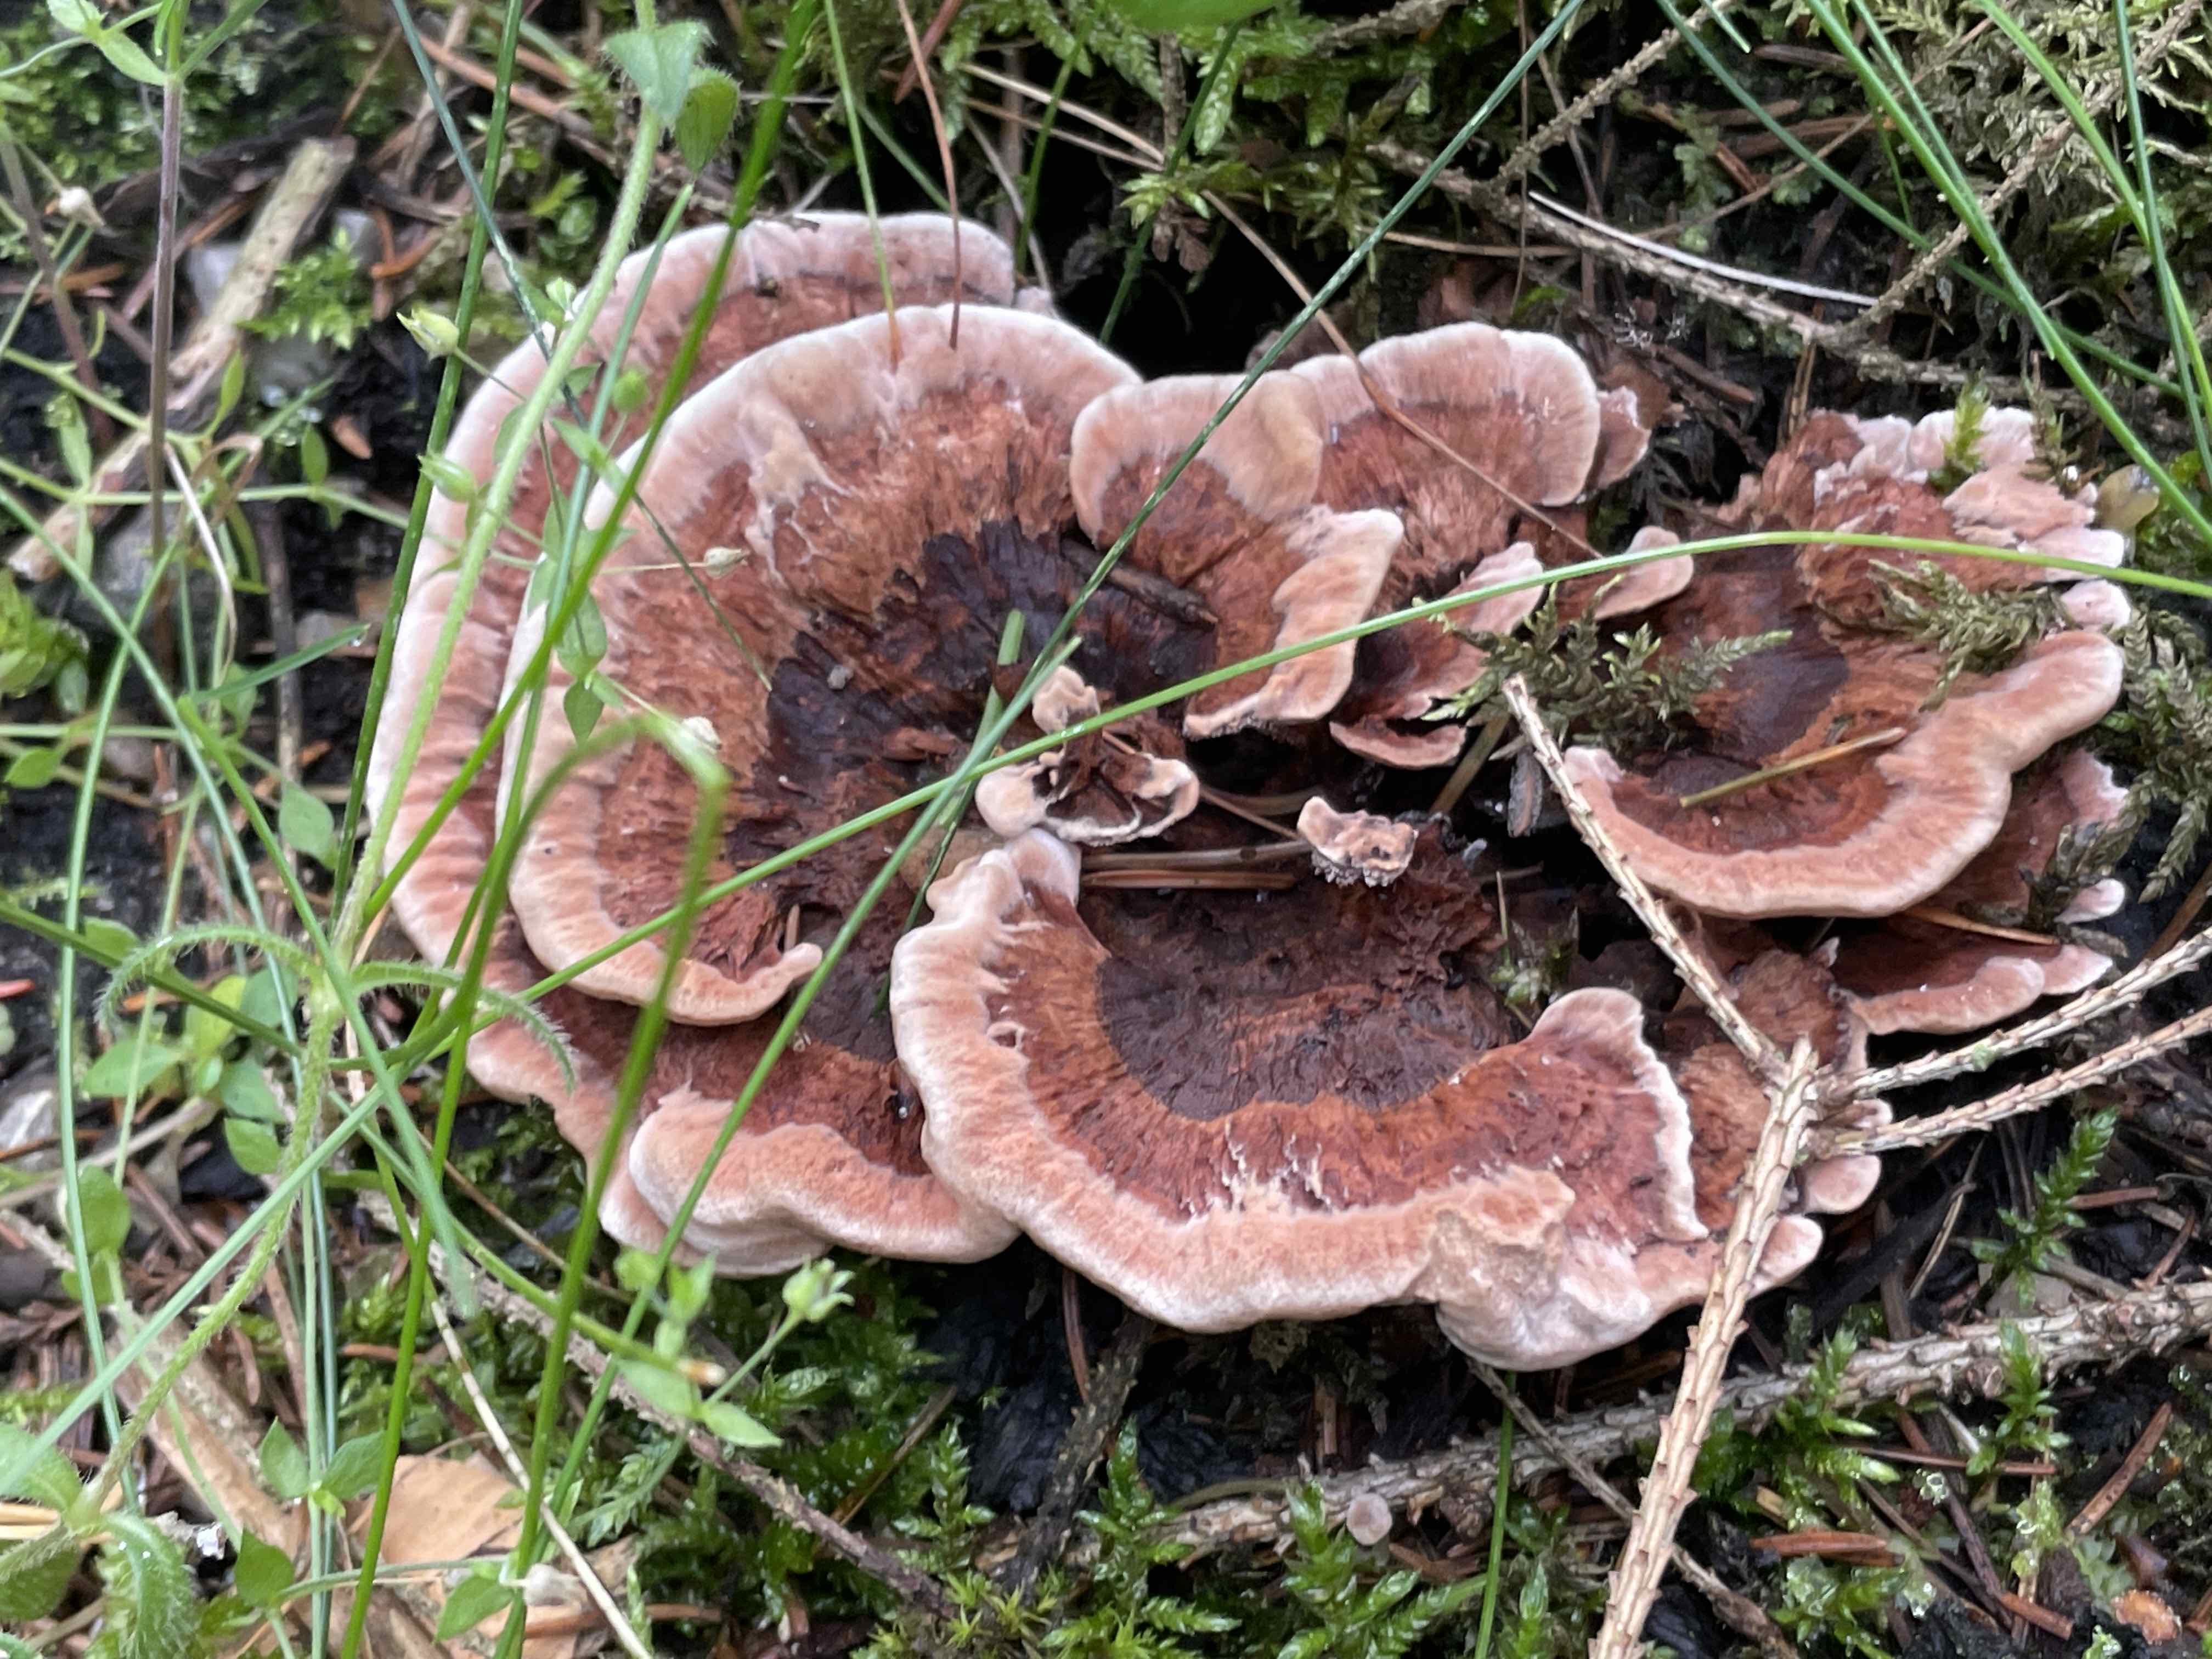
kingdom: Fungi
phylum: Basidiomycota
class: Agaricomycetes
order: Thelephorales
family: Bankeraceae
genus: Hydnellum
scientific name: Hydnellum concrescens
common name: bæltet korkpigsvamp
